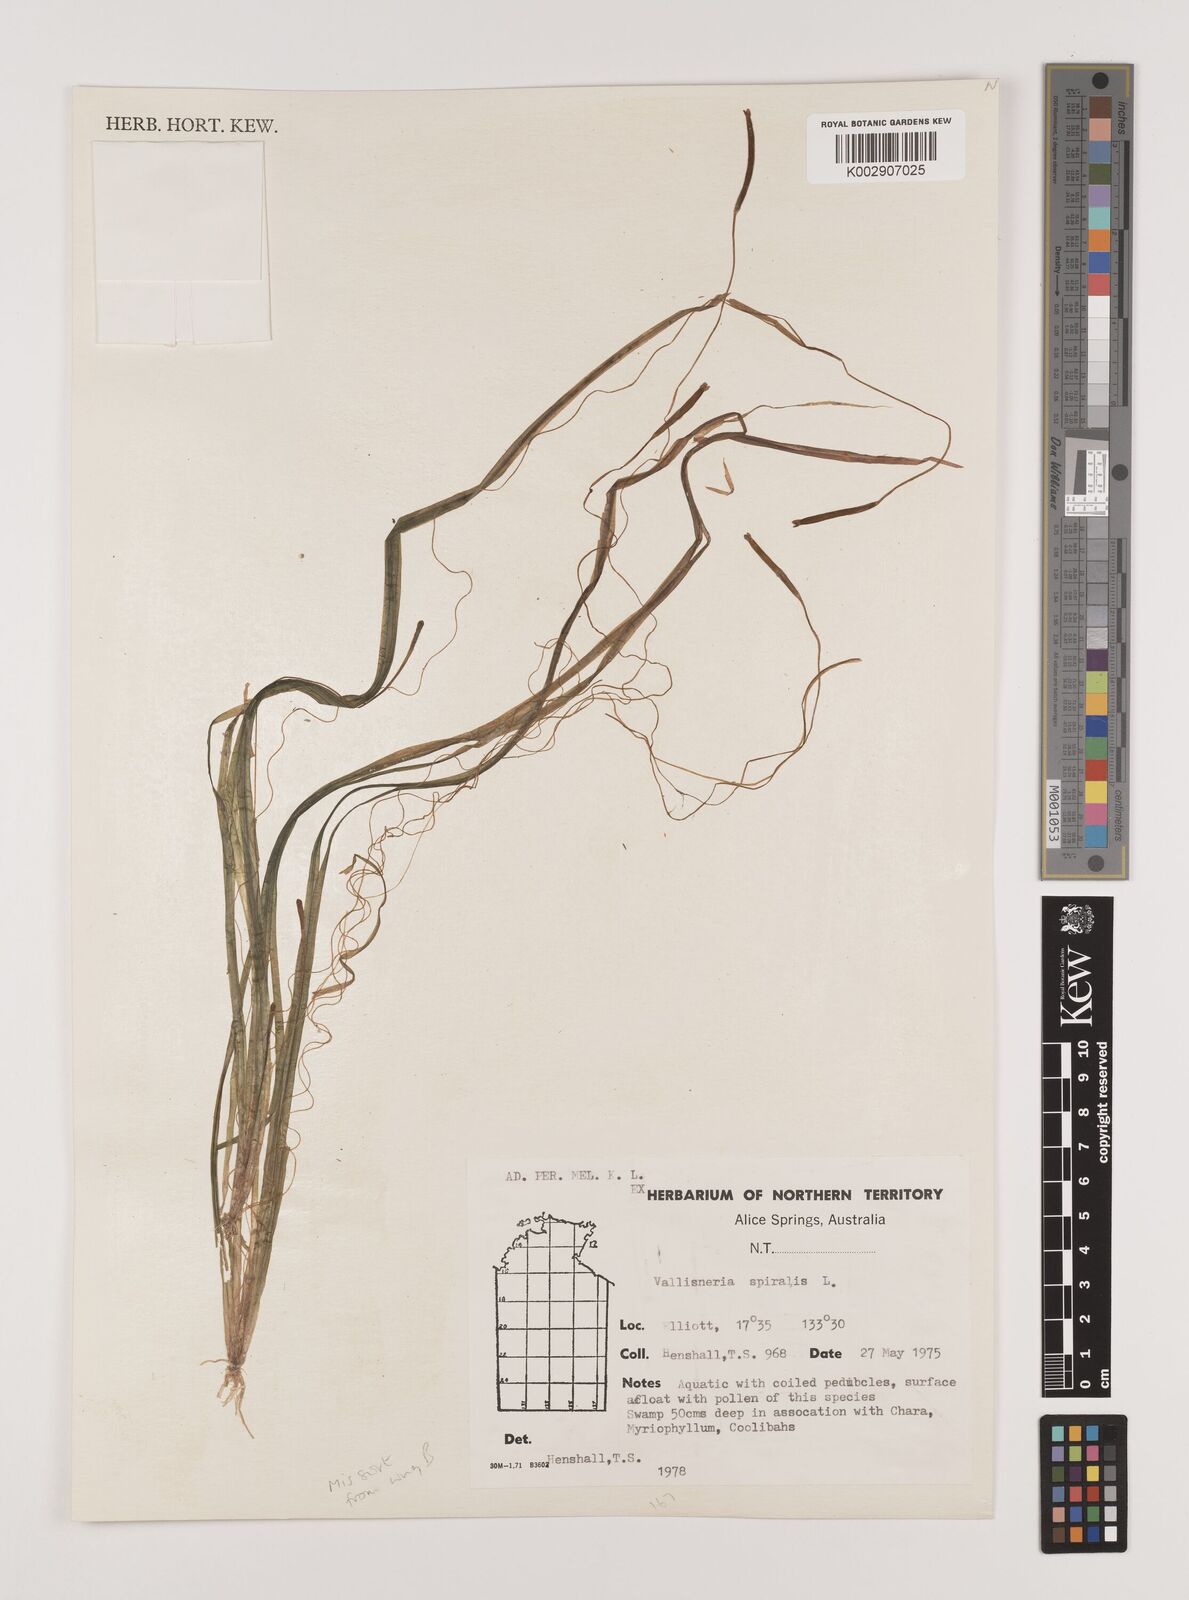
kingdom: Plantae
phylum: Tracheophyta
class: Liliopsida
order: Alismatales
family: Hydrocharitaceae
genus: Vallisneria
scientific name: Vallisneria spiralis
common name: Tapegrass
